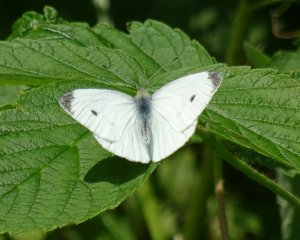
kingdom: Animalia
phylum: Arthropoda
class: Insecta
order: Lepidoptera
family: Pieridae
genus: Pieris
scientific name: Pieris rapae
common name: Cabbage White
